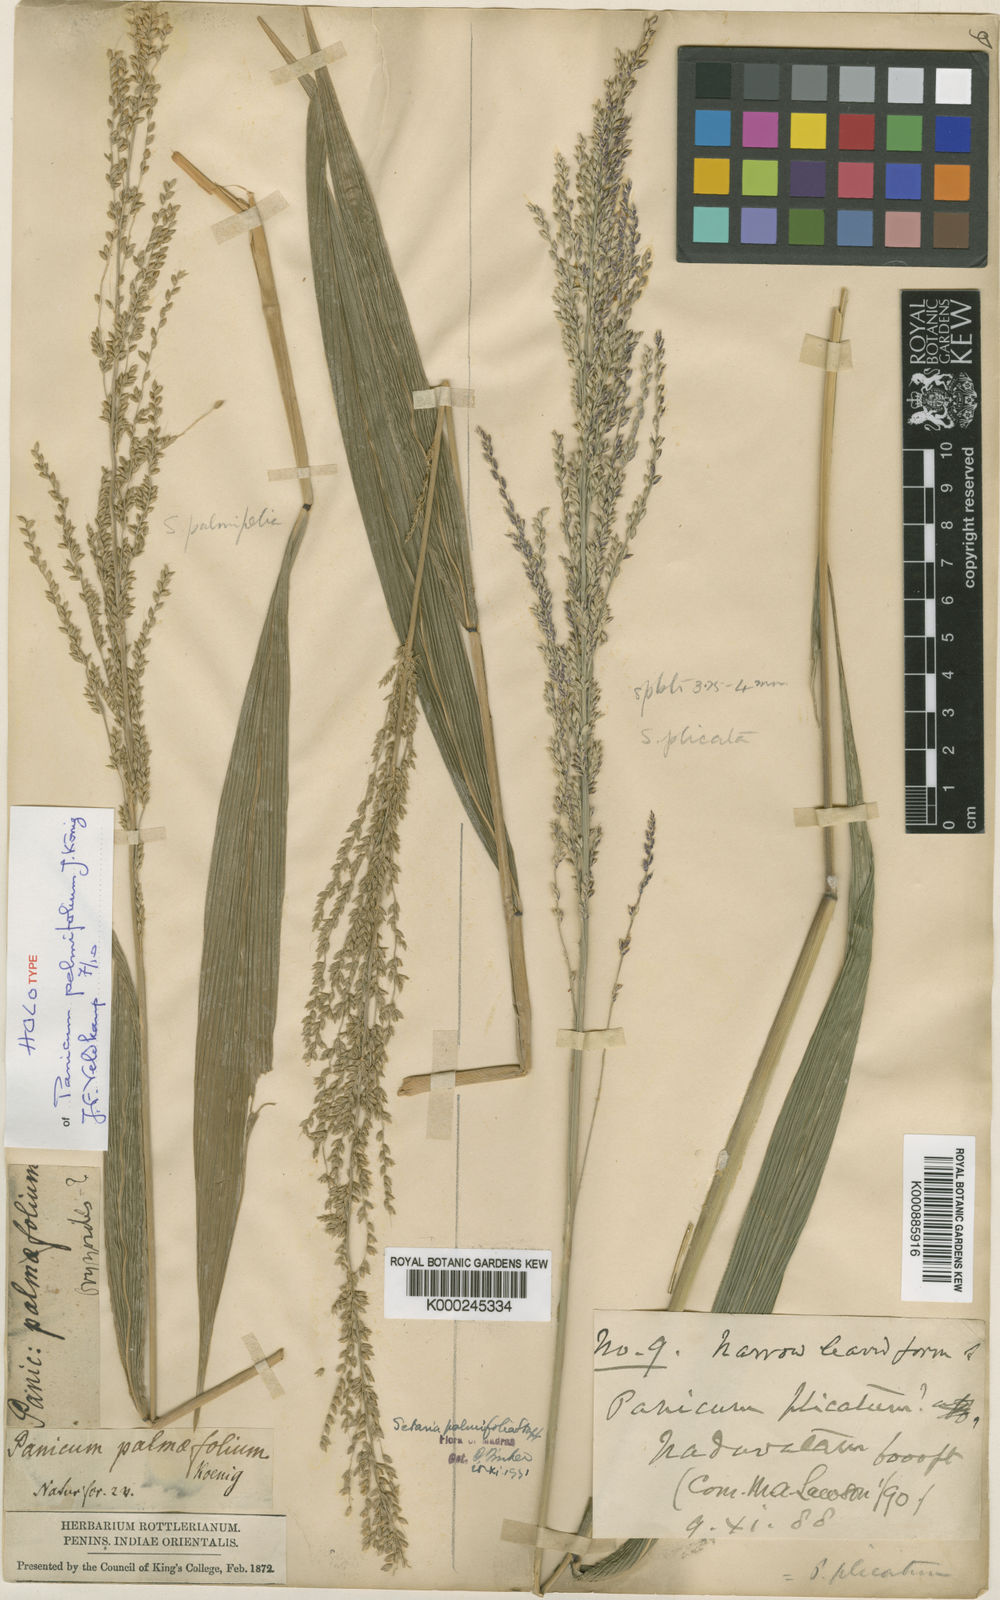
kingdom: Plantae
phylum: Tracheophyta
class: Liliopsida
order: Poales
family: Poaceae
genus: Setaria
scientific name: Setaria palmifolia
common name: Broadleaved bristlegrass
